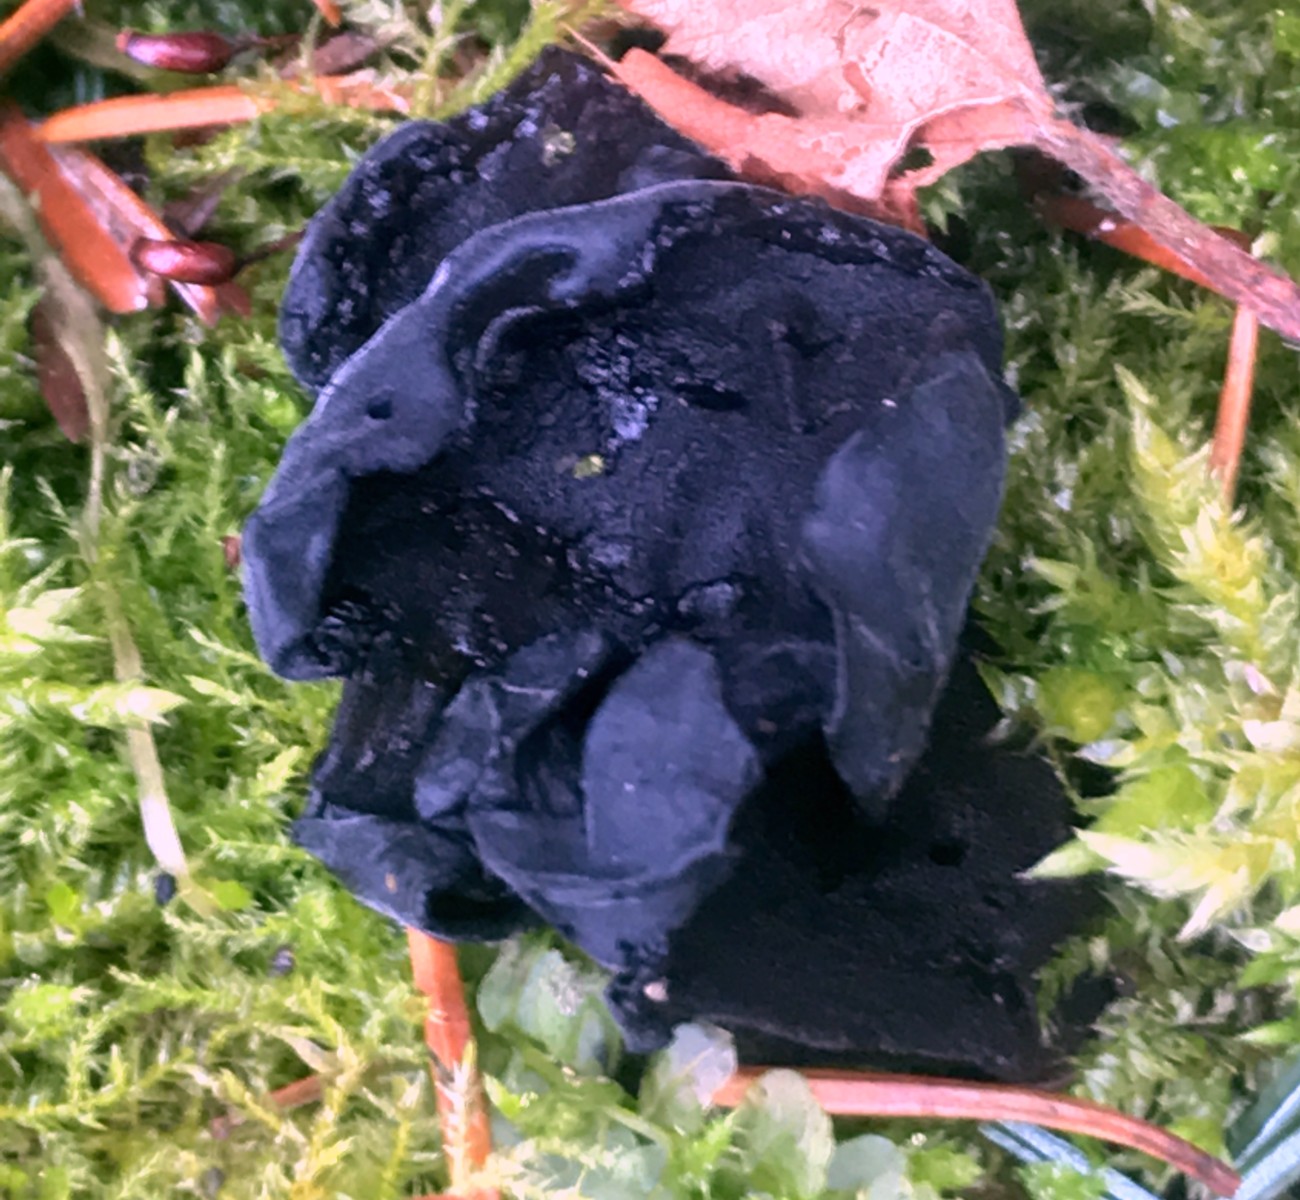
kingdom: Fungi
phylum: Basidiomycota
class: Agaricomycetes
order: Auriculariales
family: Auriculariaceae
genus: Exidia
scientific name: Exidia glandulosa
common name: ege-bævretop
